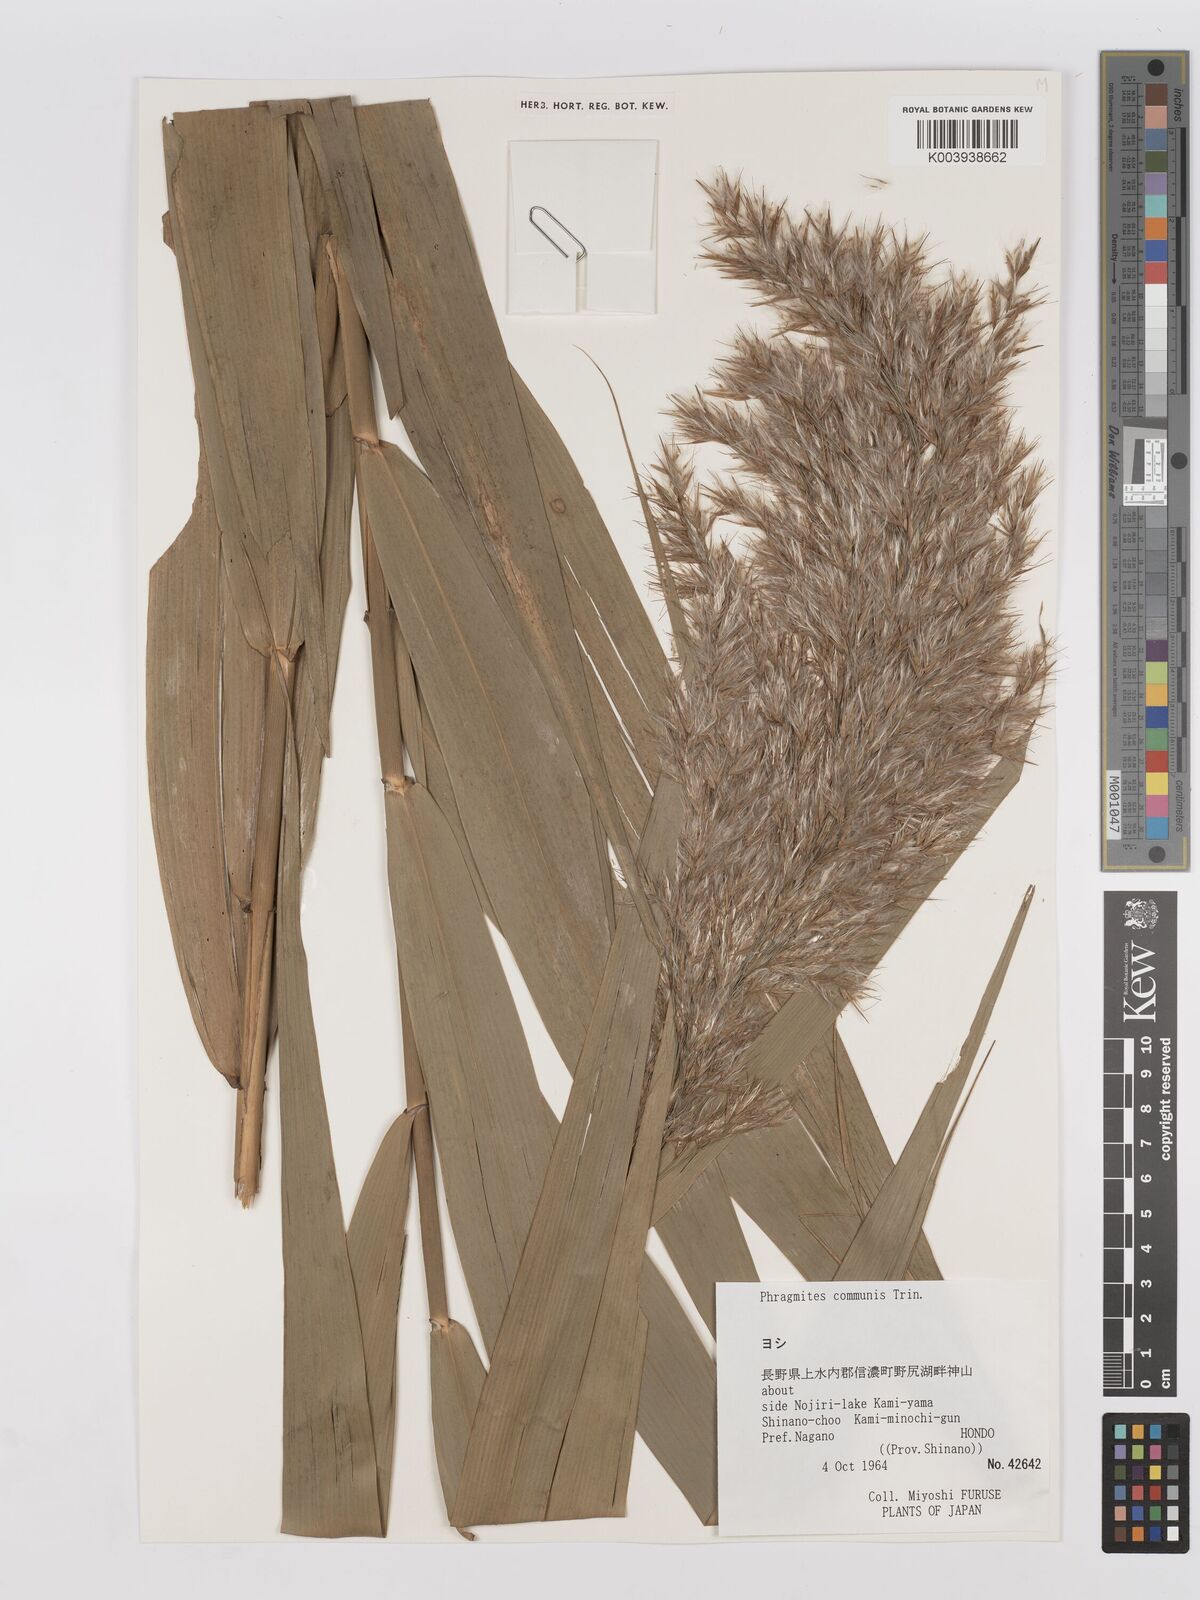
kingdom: Plantae
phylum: Tracheophyta
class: Liliopsida
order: Poales
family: Poaceae
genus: Phragmites
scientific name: Phragmites australis
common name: Common reed
